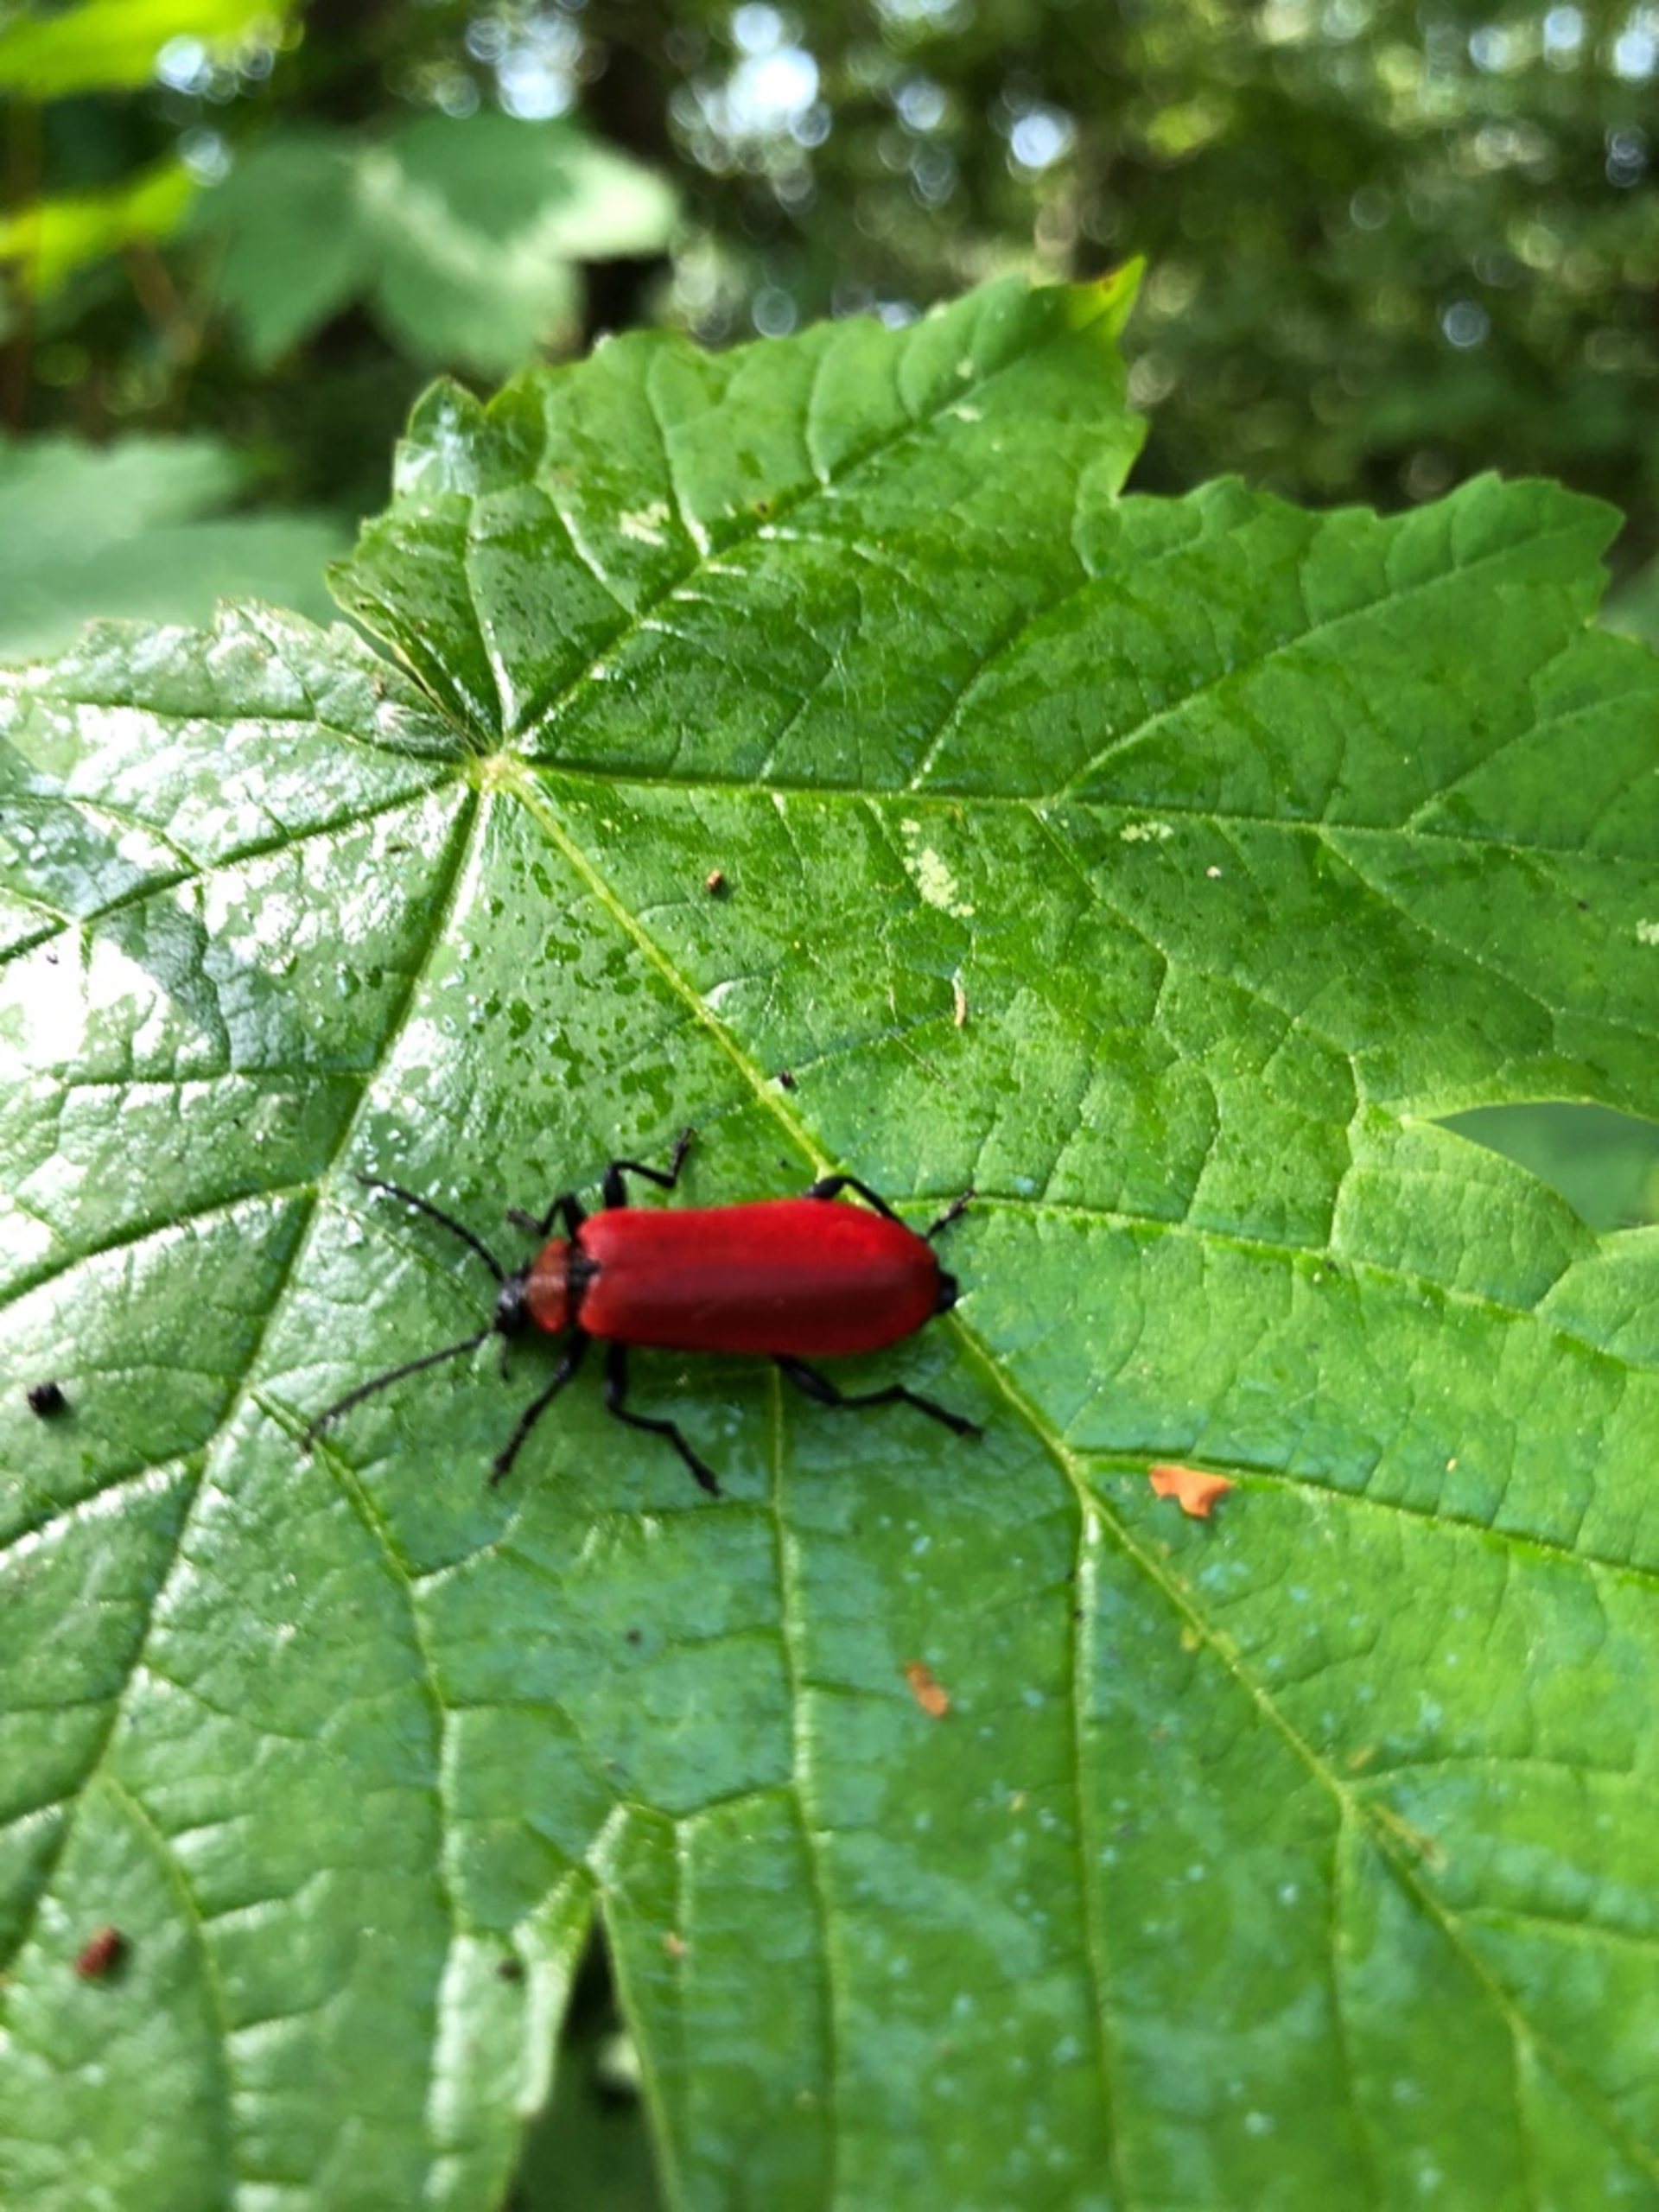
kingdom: Animalia
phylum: Arthropoda
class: Insecta
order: Coleoptera
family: Pyrochroidae
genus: Pyrochroa
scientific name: Pyrochroa coccinea
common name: Sorthovedet kardinalbille
